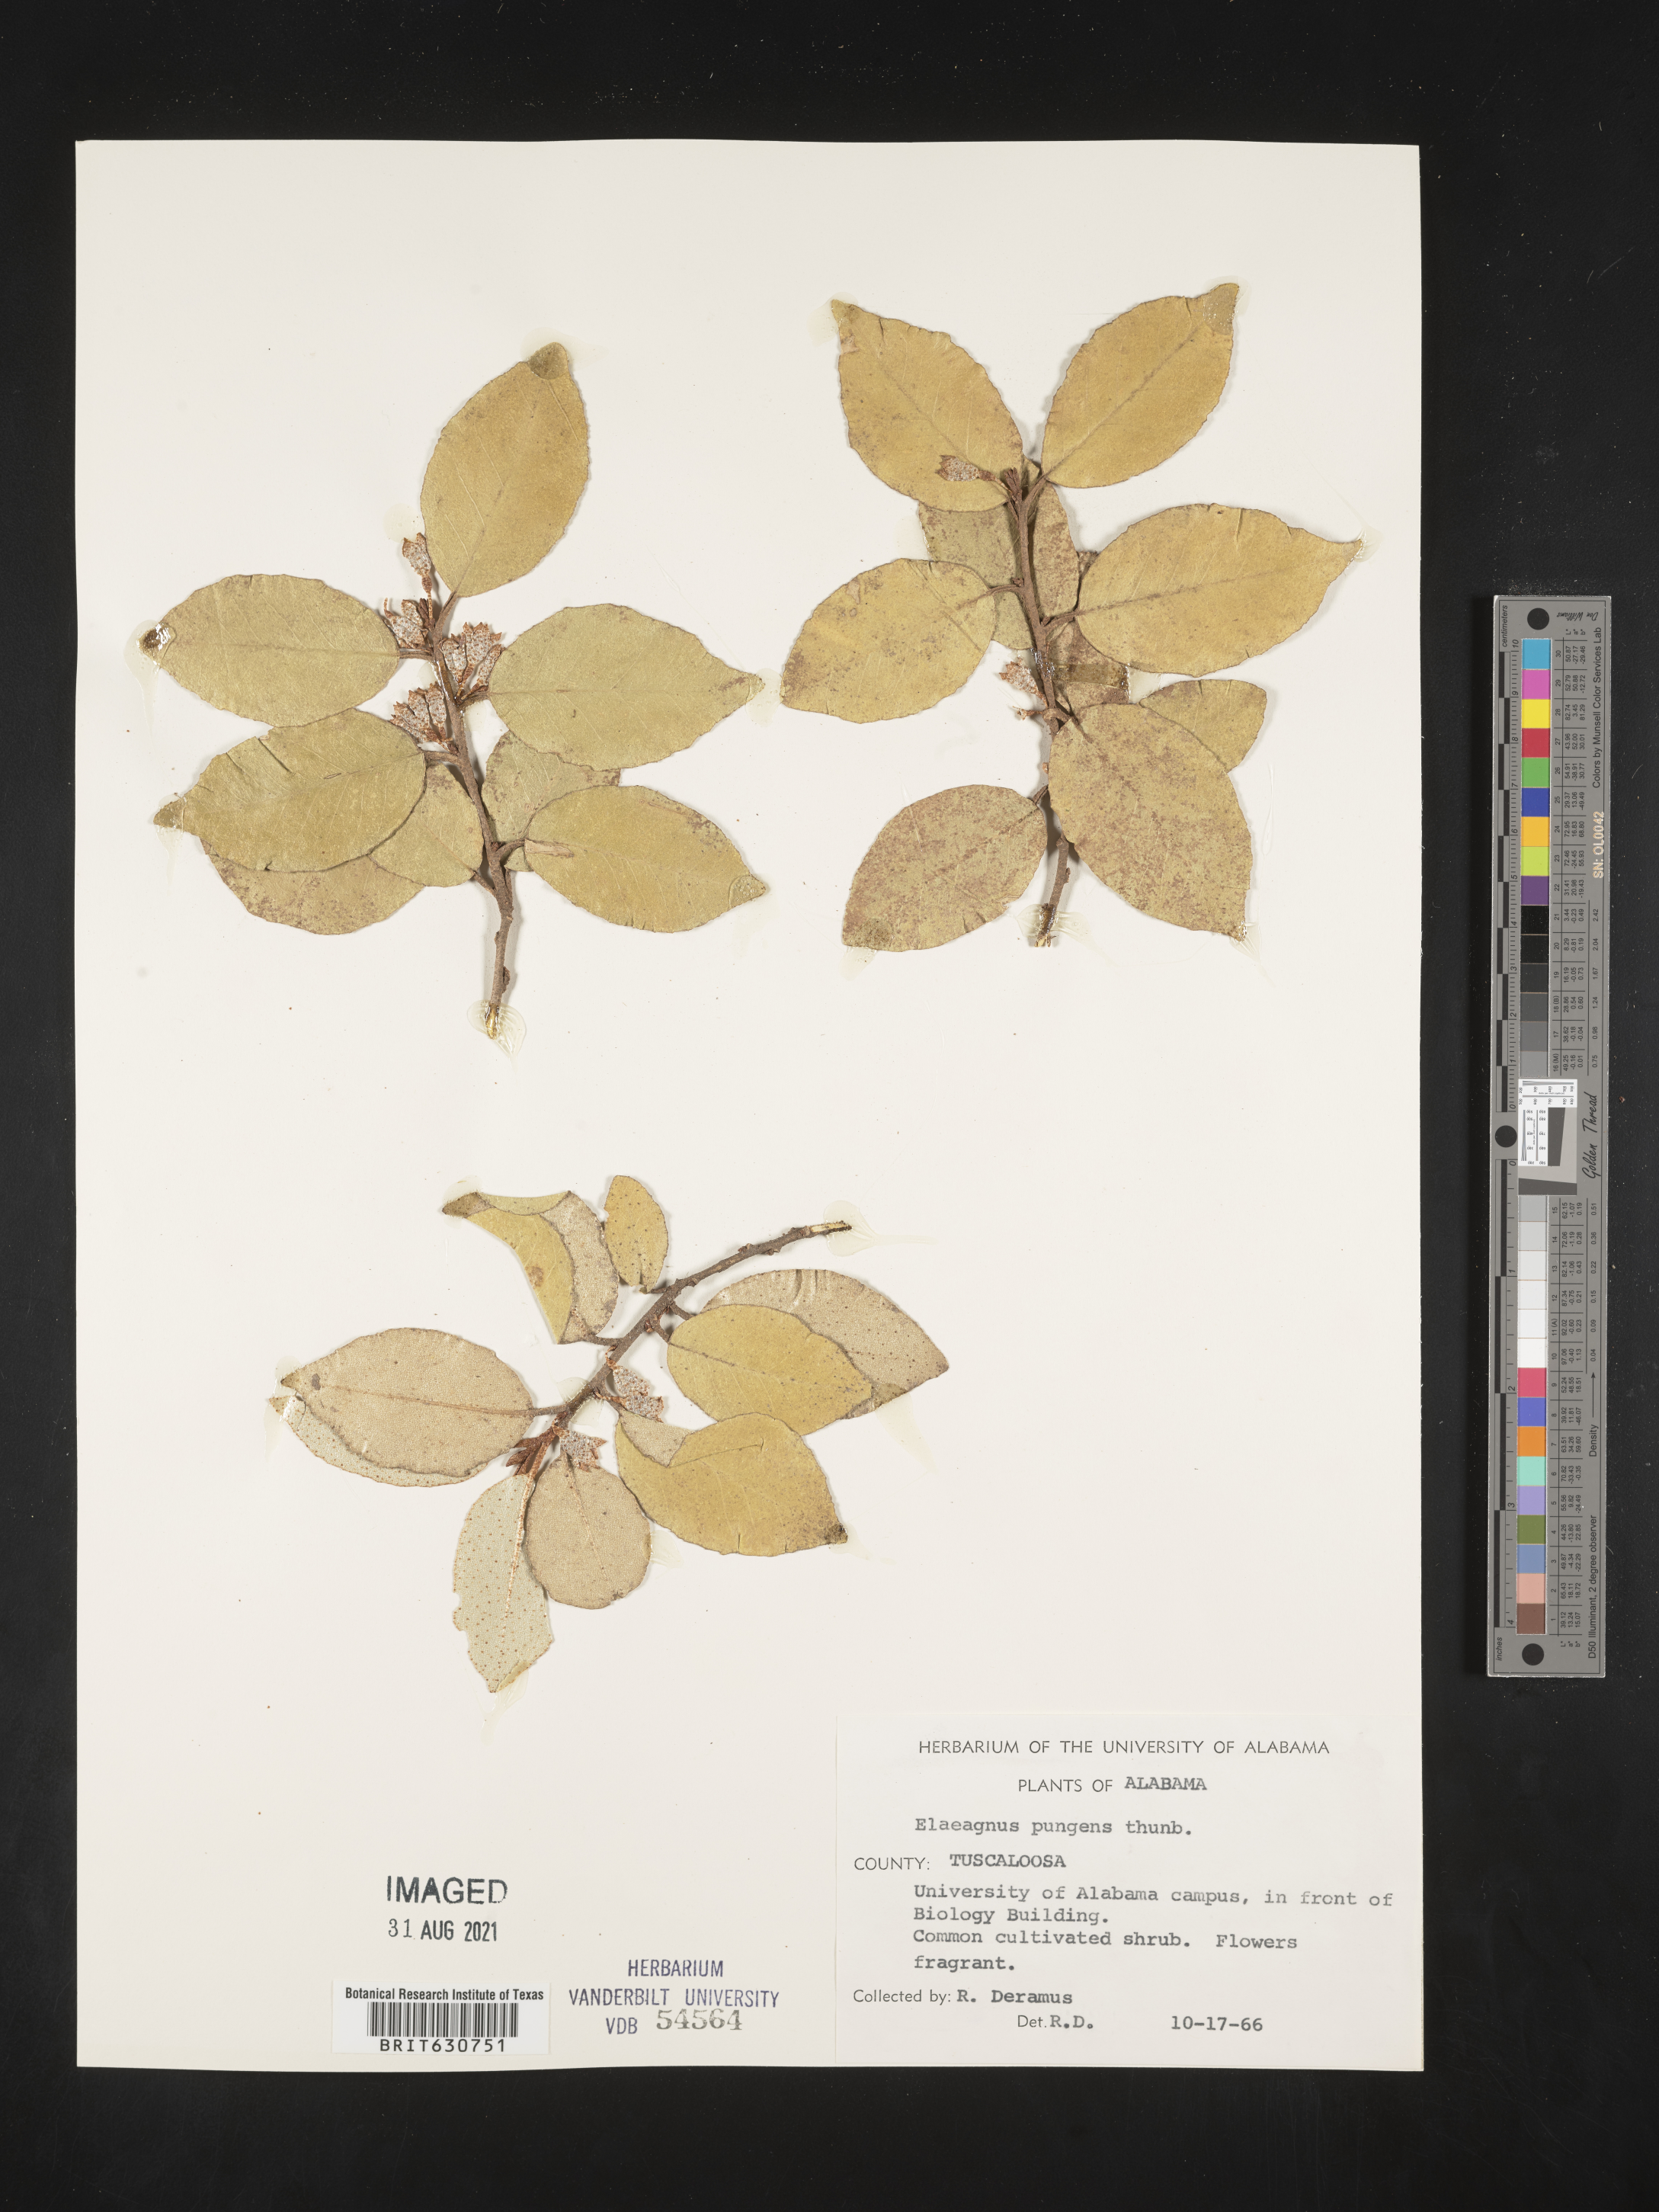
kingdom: Plantae
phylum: Tracheophyta
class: Magnoliopsida
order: Rosales
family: Elaeagnaceae
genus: Elaeagnus
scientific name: Elaeagnus
